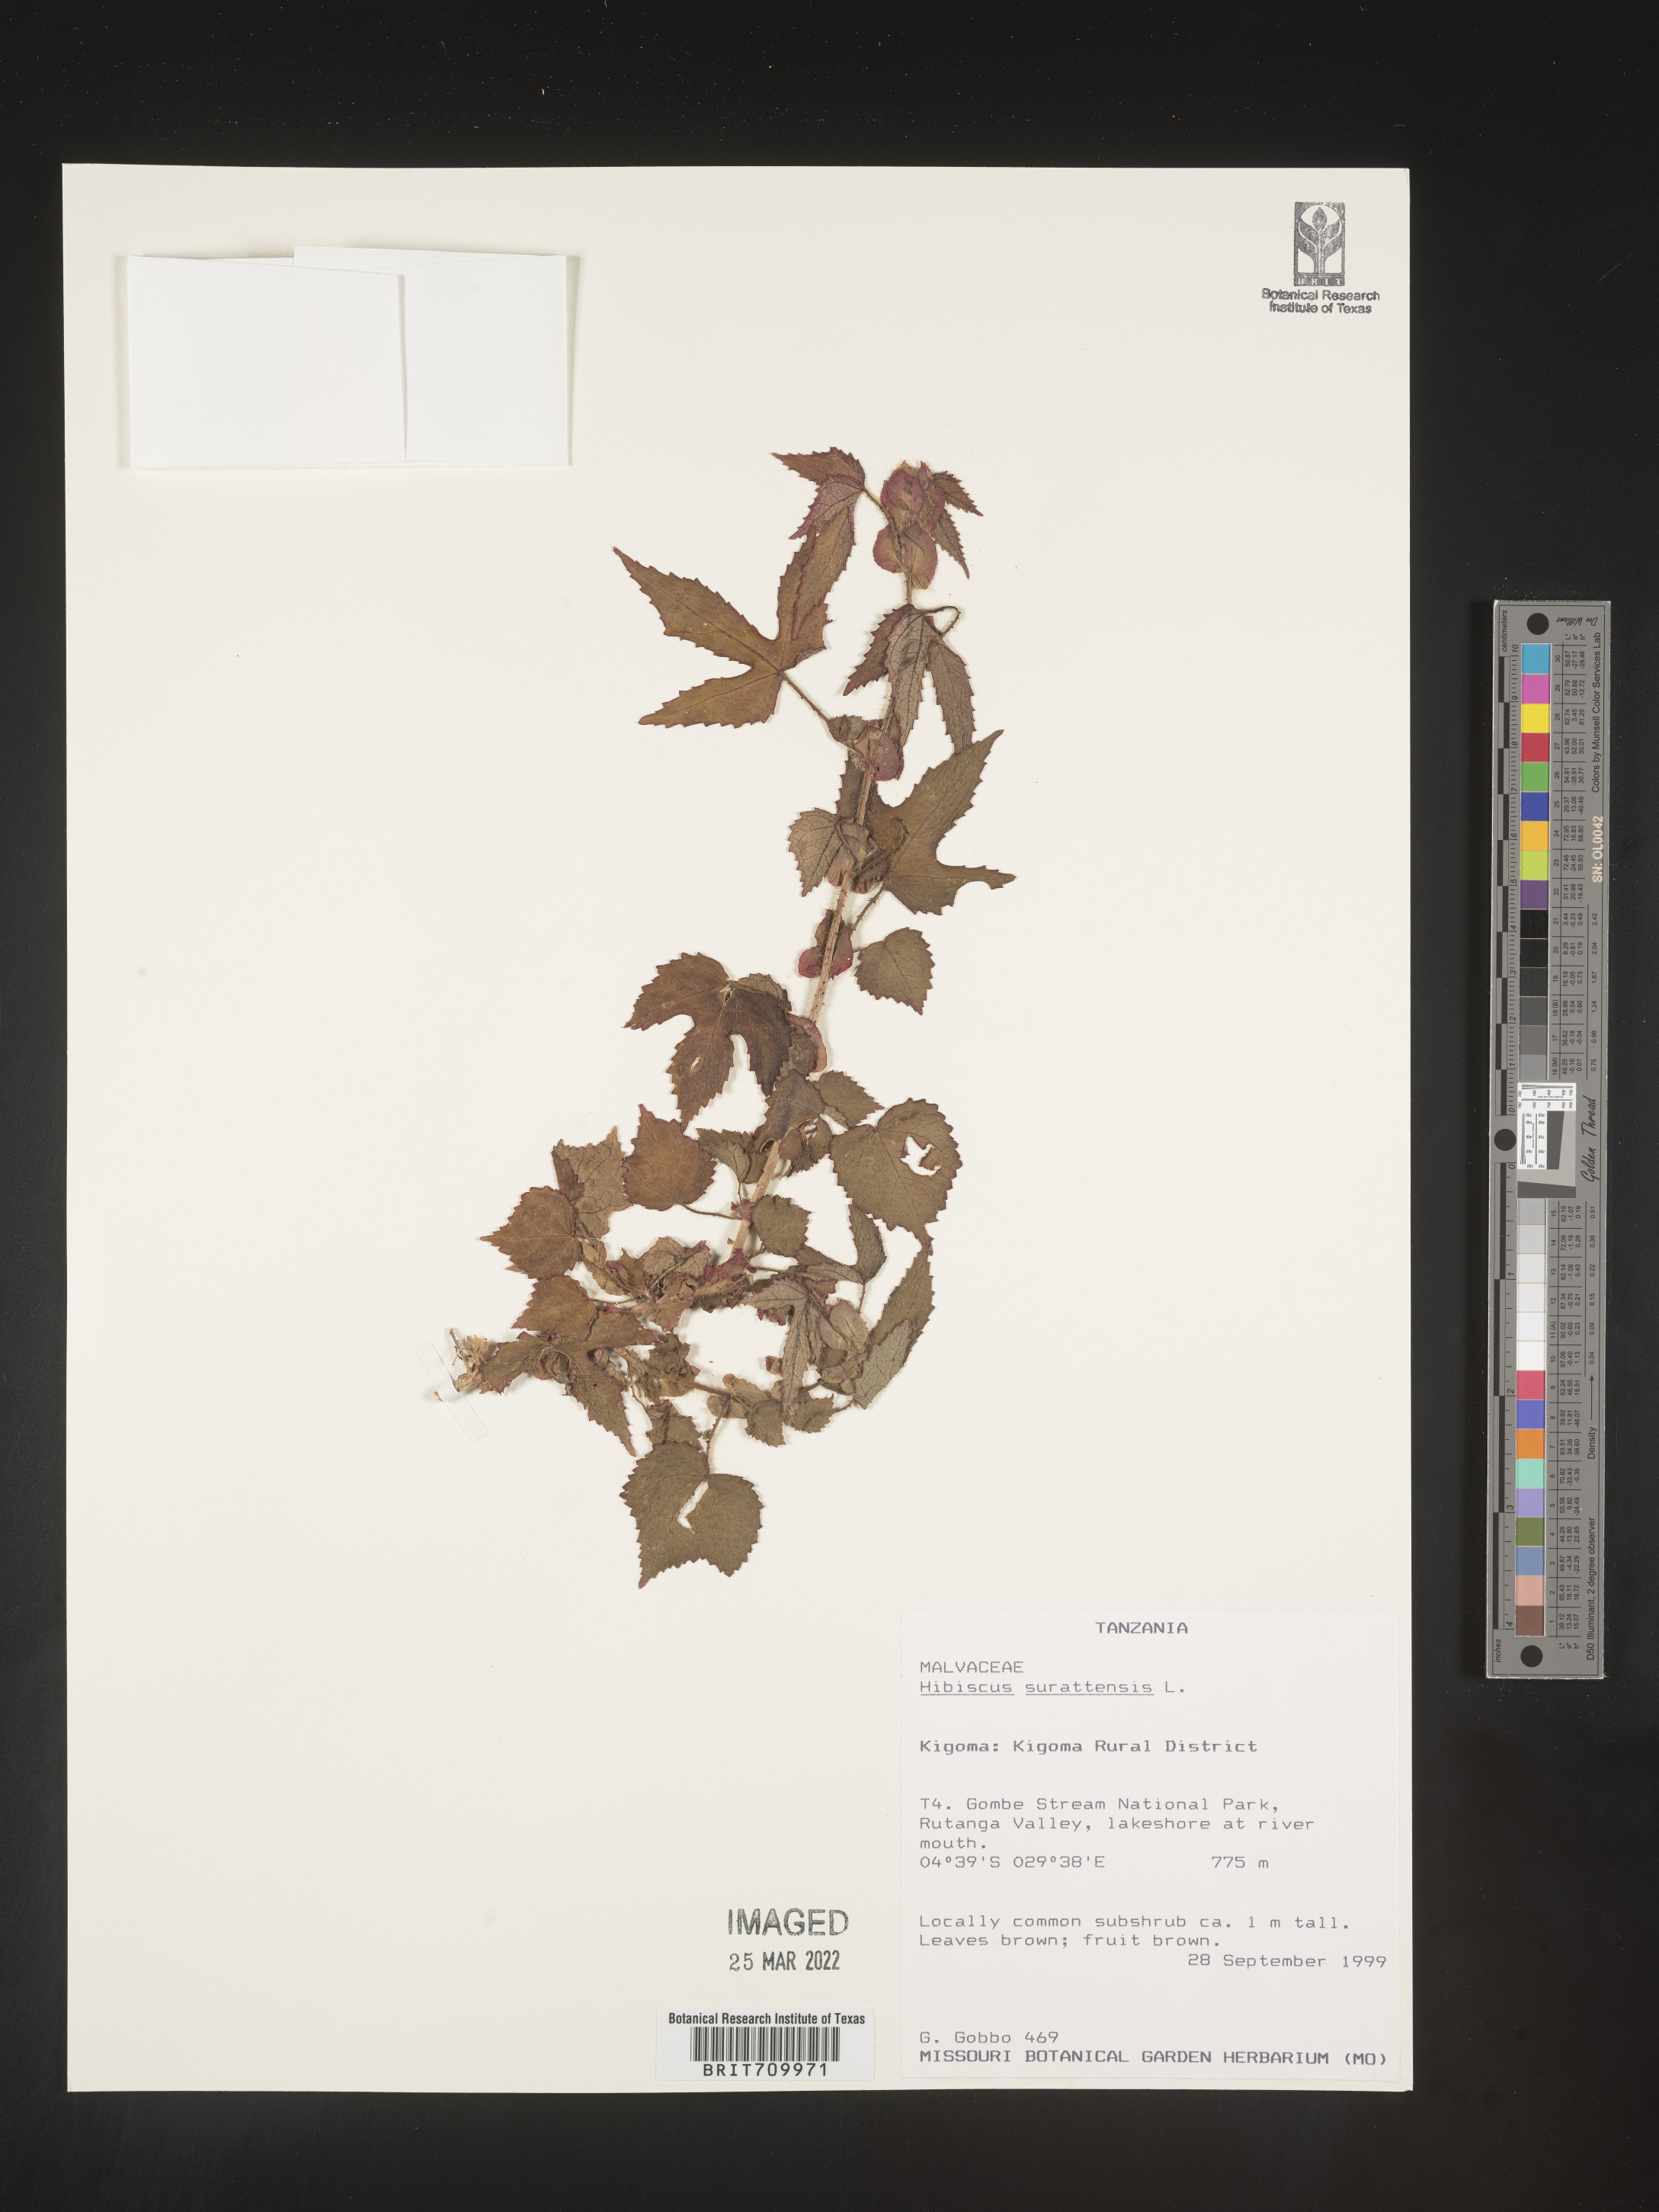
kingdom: Plantae
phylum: Tracheophyta
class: Magnoliopsida
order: Malvales
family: Malvaceae
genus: Hibiscus
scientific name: Hibiscus
